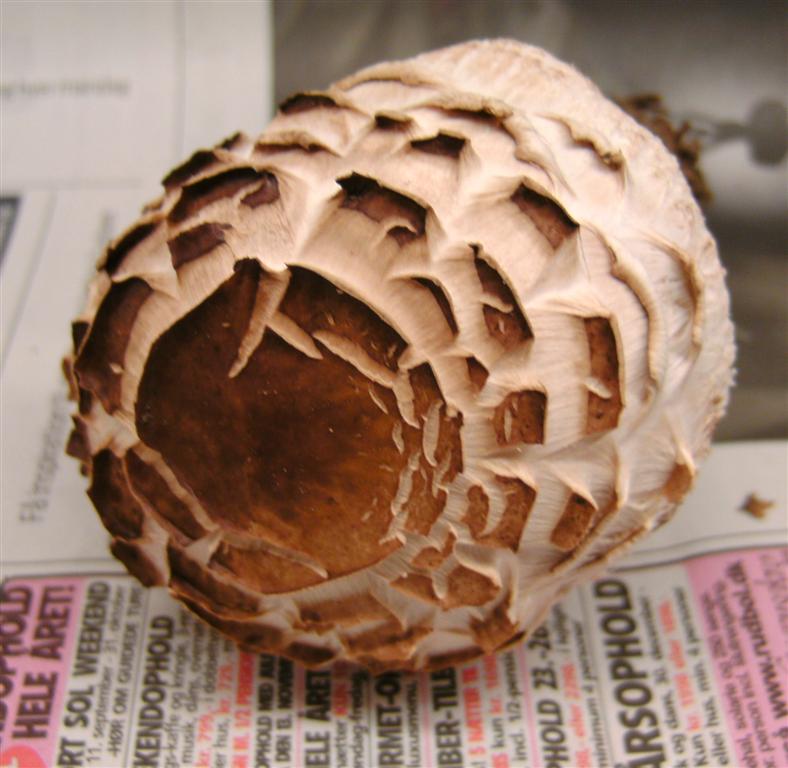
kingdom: Fungi
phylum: Basidiomycota
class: Agaricomycetes
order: Agaricales
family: Agaricaceae
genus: Chlorophyllum
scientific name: Chlorophyllum brunneum
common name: giftig rabarberhat
